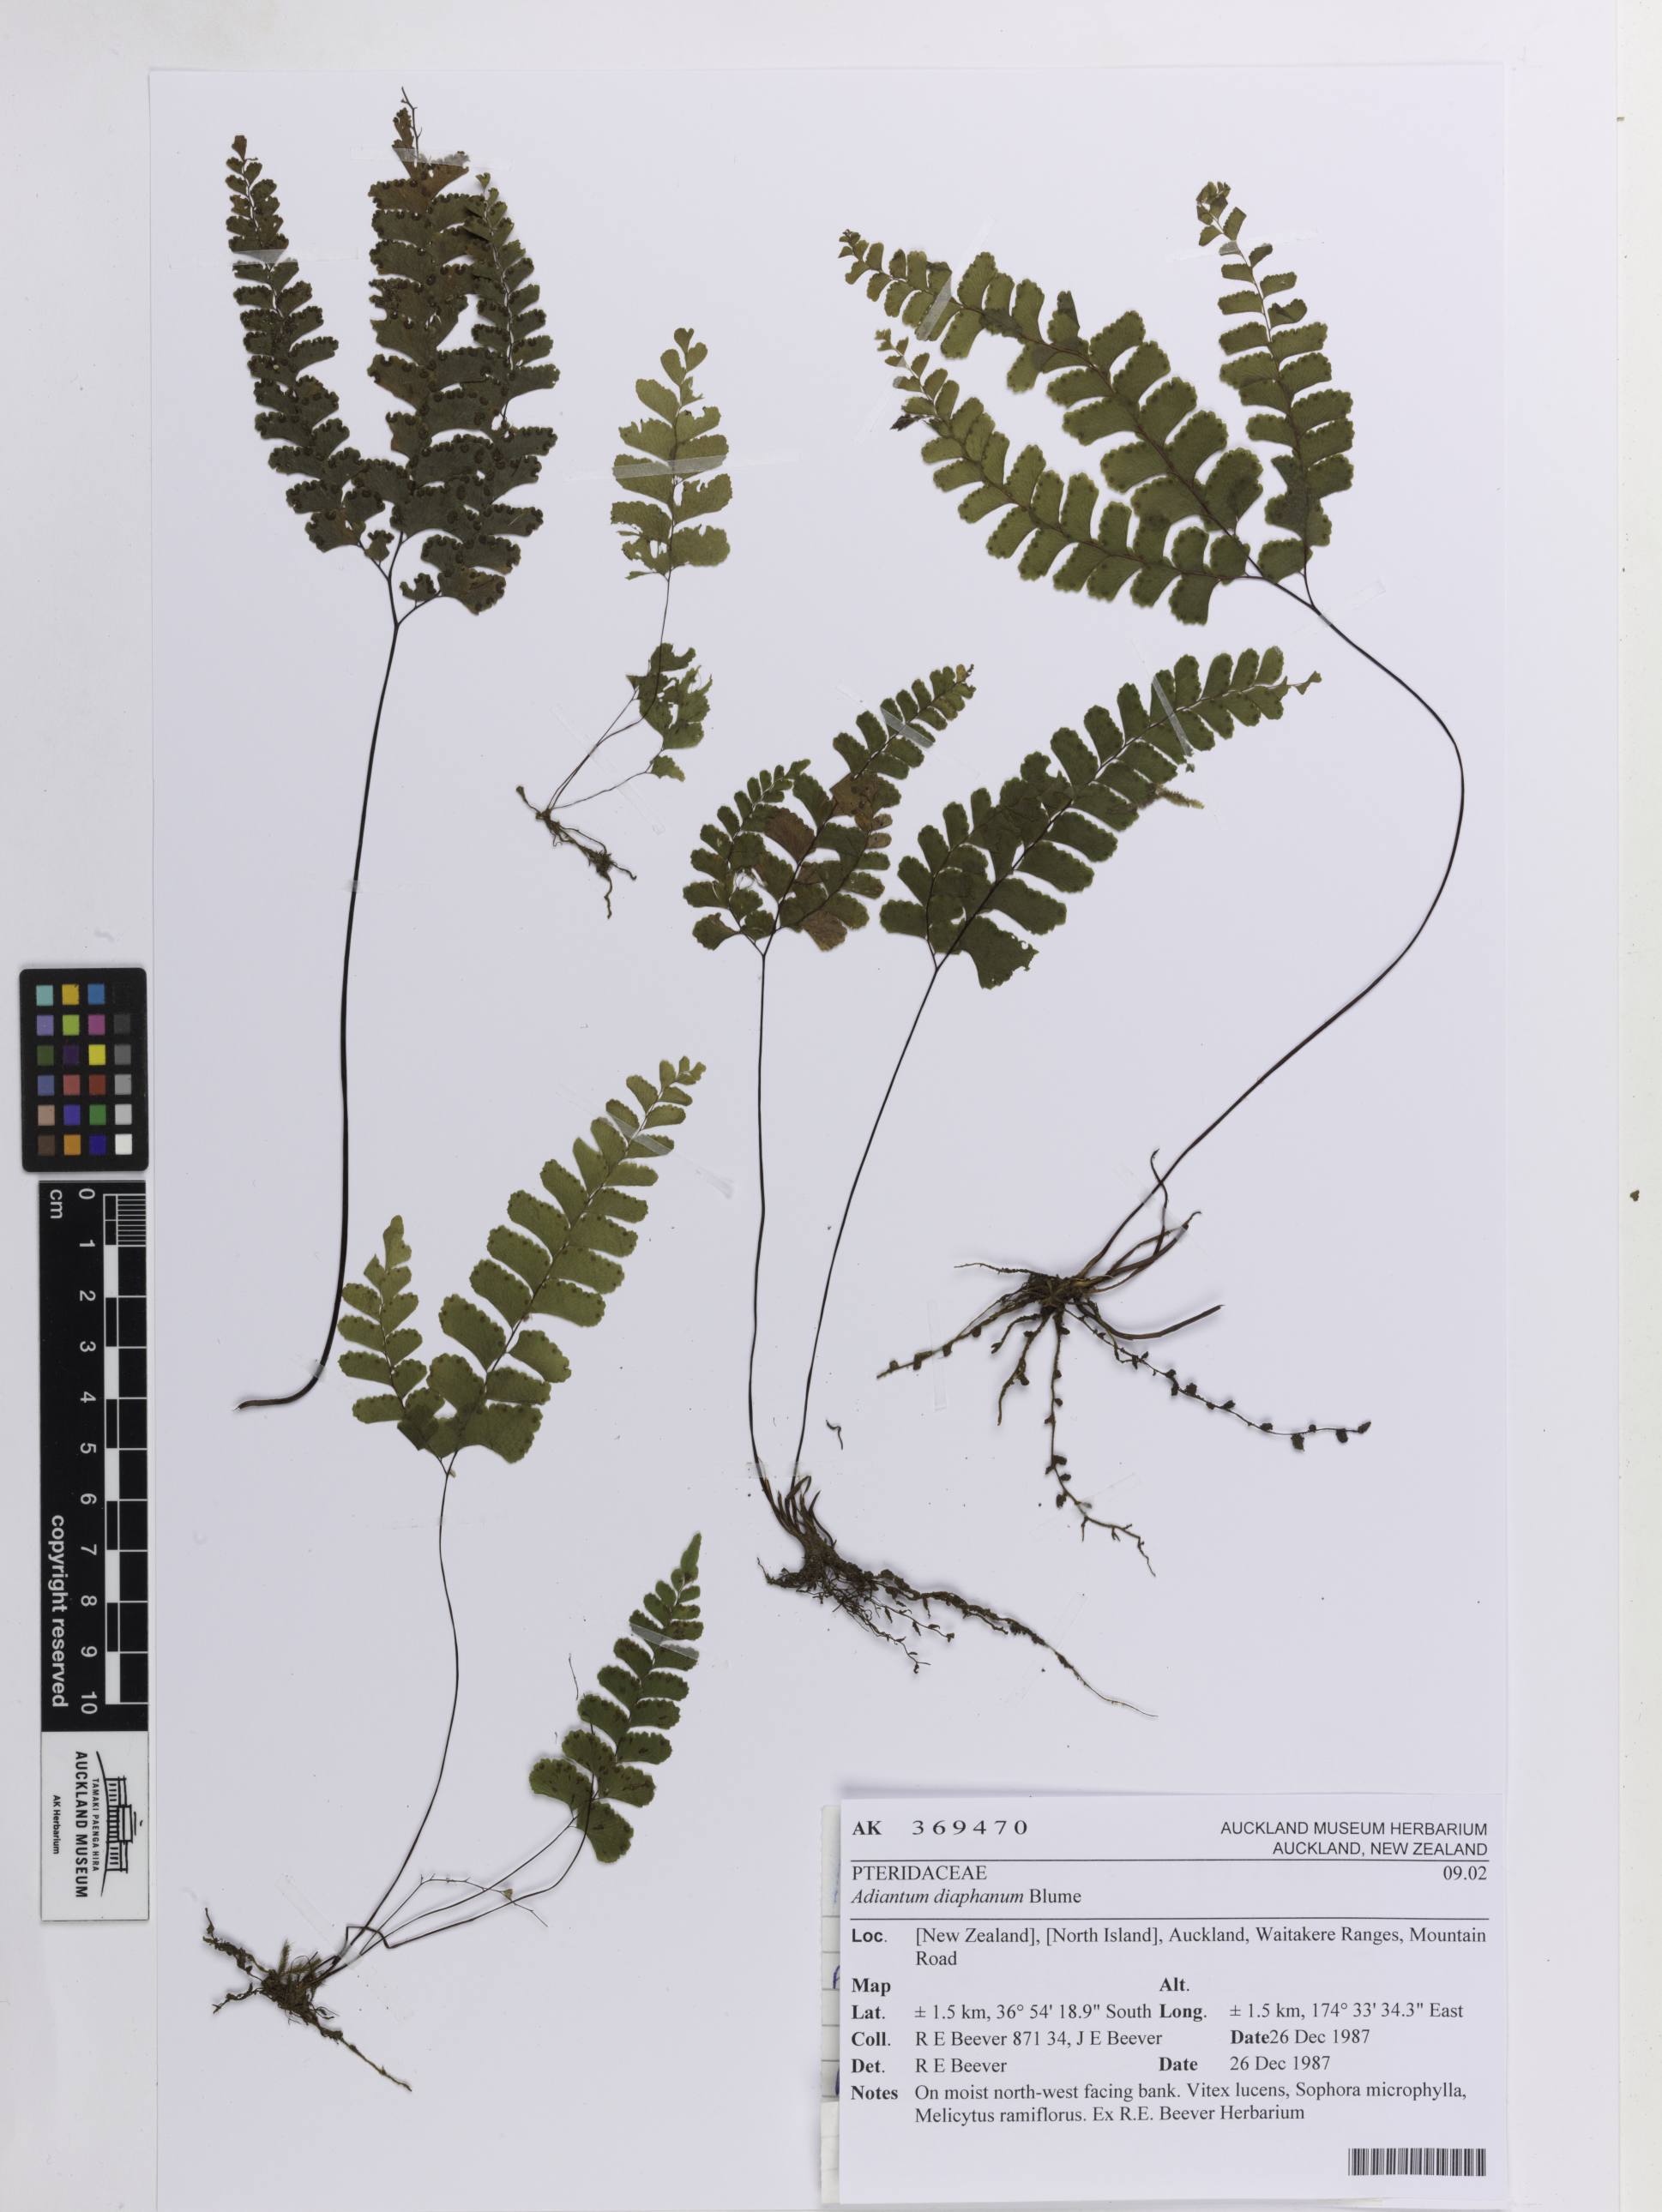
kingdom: Plantae
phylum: Tracheophyta
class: Polypodiopsida
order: Polypodiales
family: Pteridaceae
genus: Adiantum
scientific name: Adiantum diaphanum
